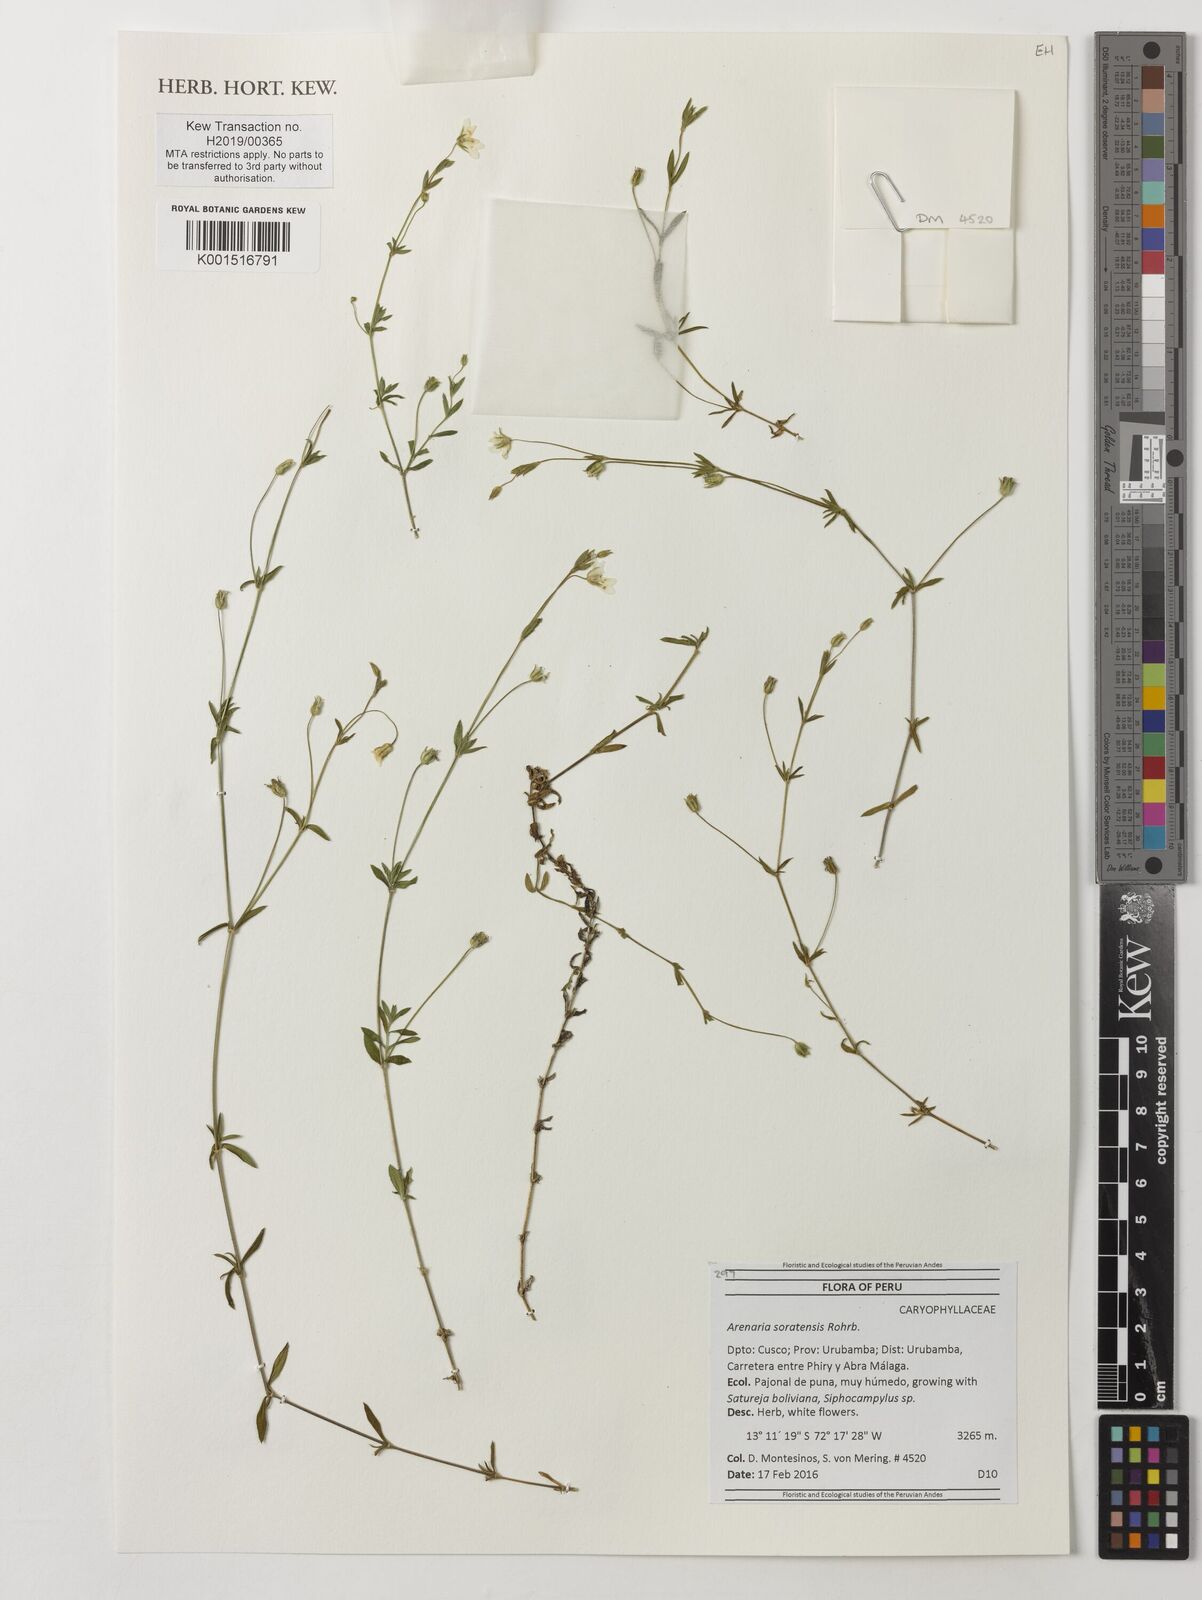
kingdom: Plantae
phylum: Tracheophyta
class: Magnoliopsida
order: Caryophyllales
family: Caryophyllaceae
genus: Arenaria
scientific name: Arenaria soratensis
